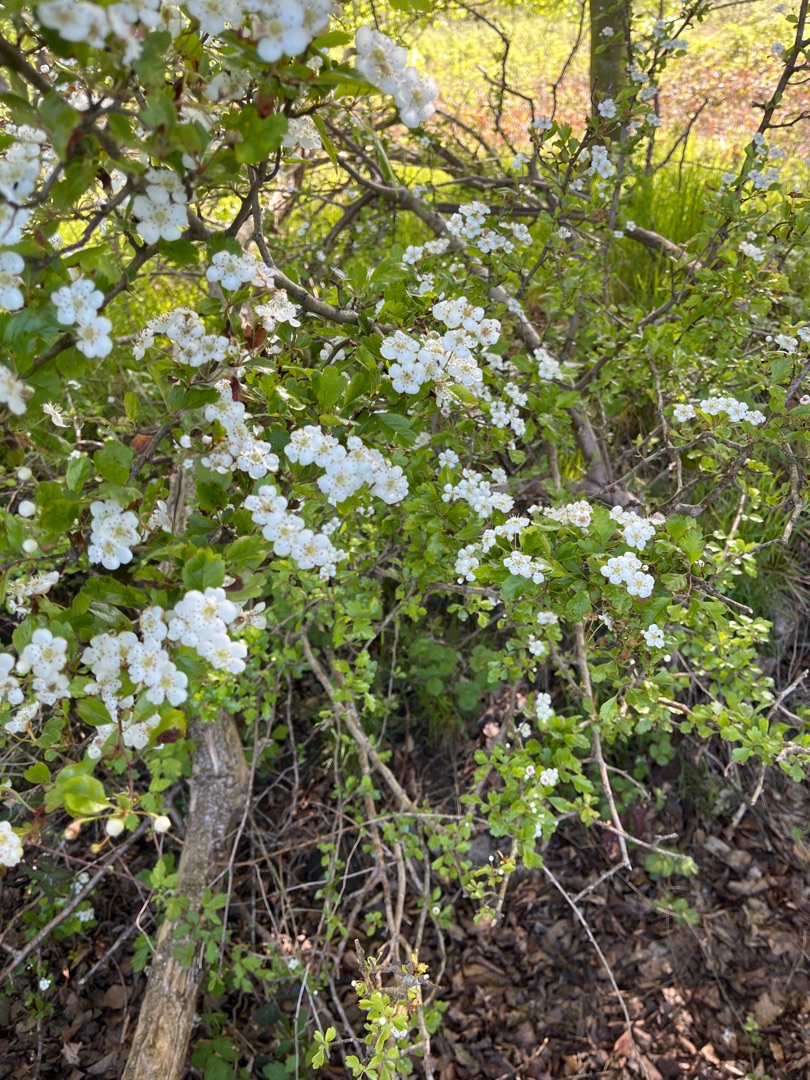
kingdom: Plantae
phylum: Tracheophyta
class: Magnoliopsida
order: Rosales
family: Rosaceae
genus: Crataegus
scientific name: Crataegus laevigata
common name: Almindelig hvidtjørn
